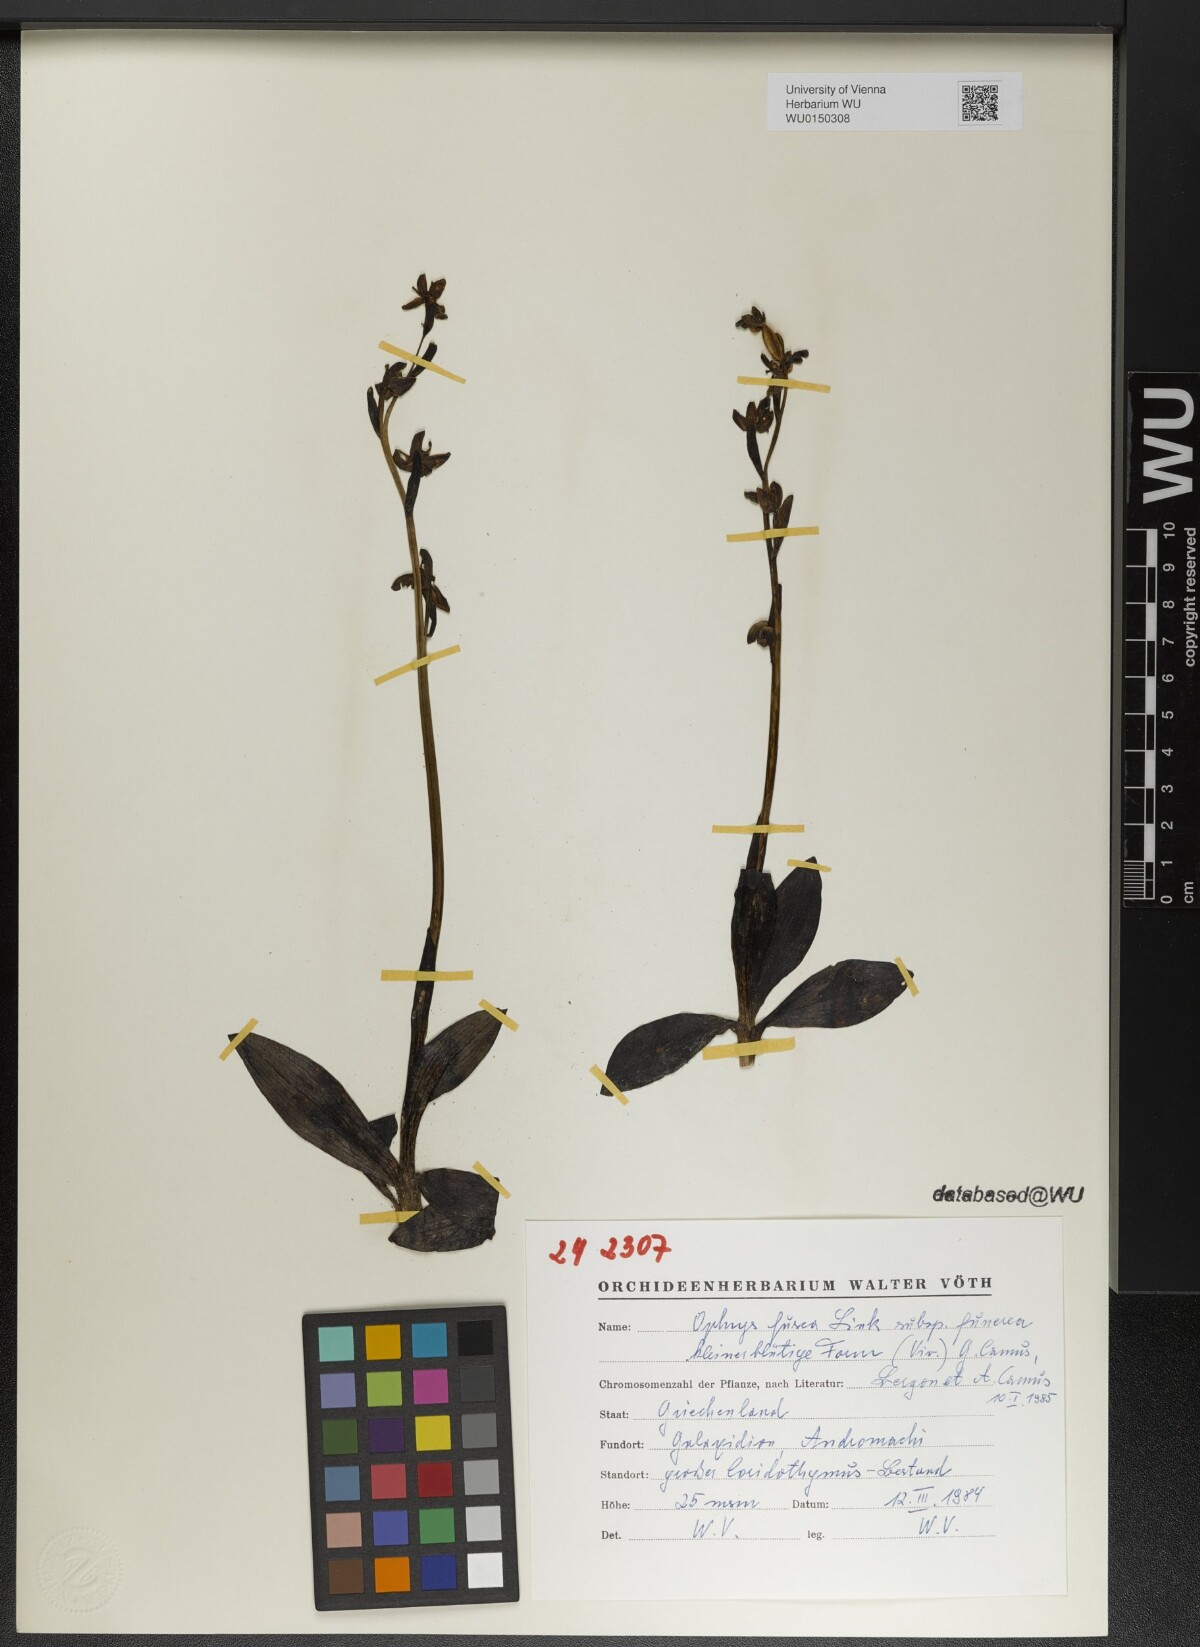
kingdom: Plantae
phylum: Tracheophyta
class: Liliopsida
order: Asparagales
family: Orchidaceae
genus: Ophrys
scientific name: Ophrys fusca
